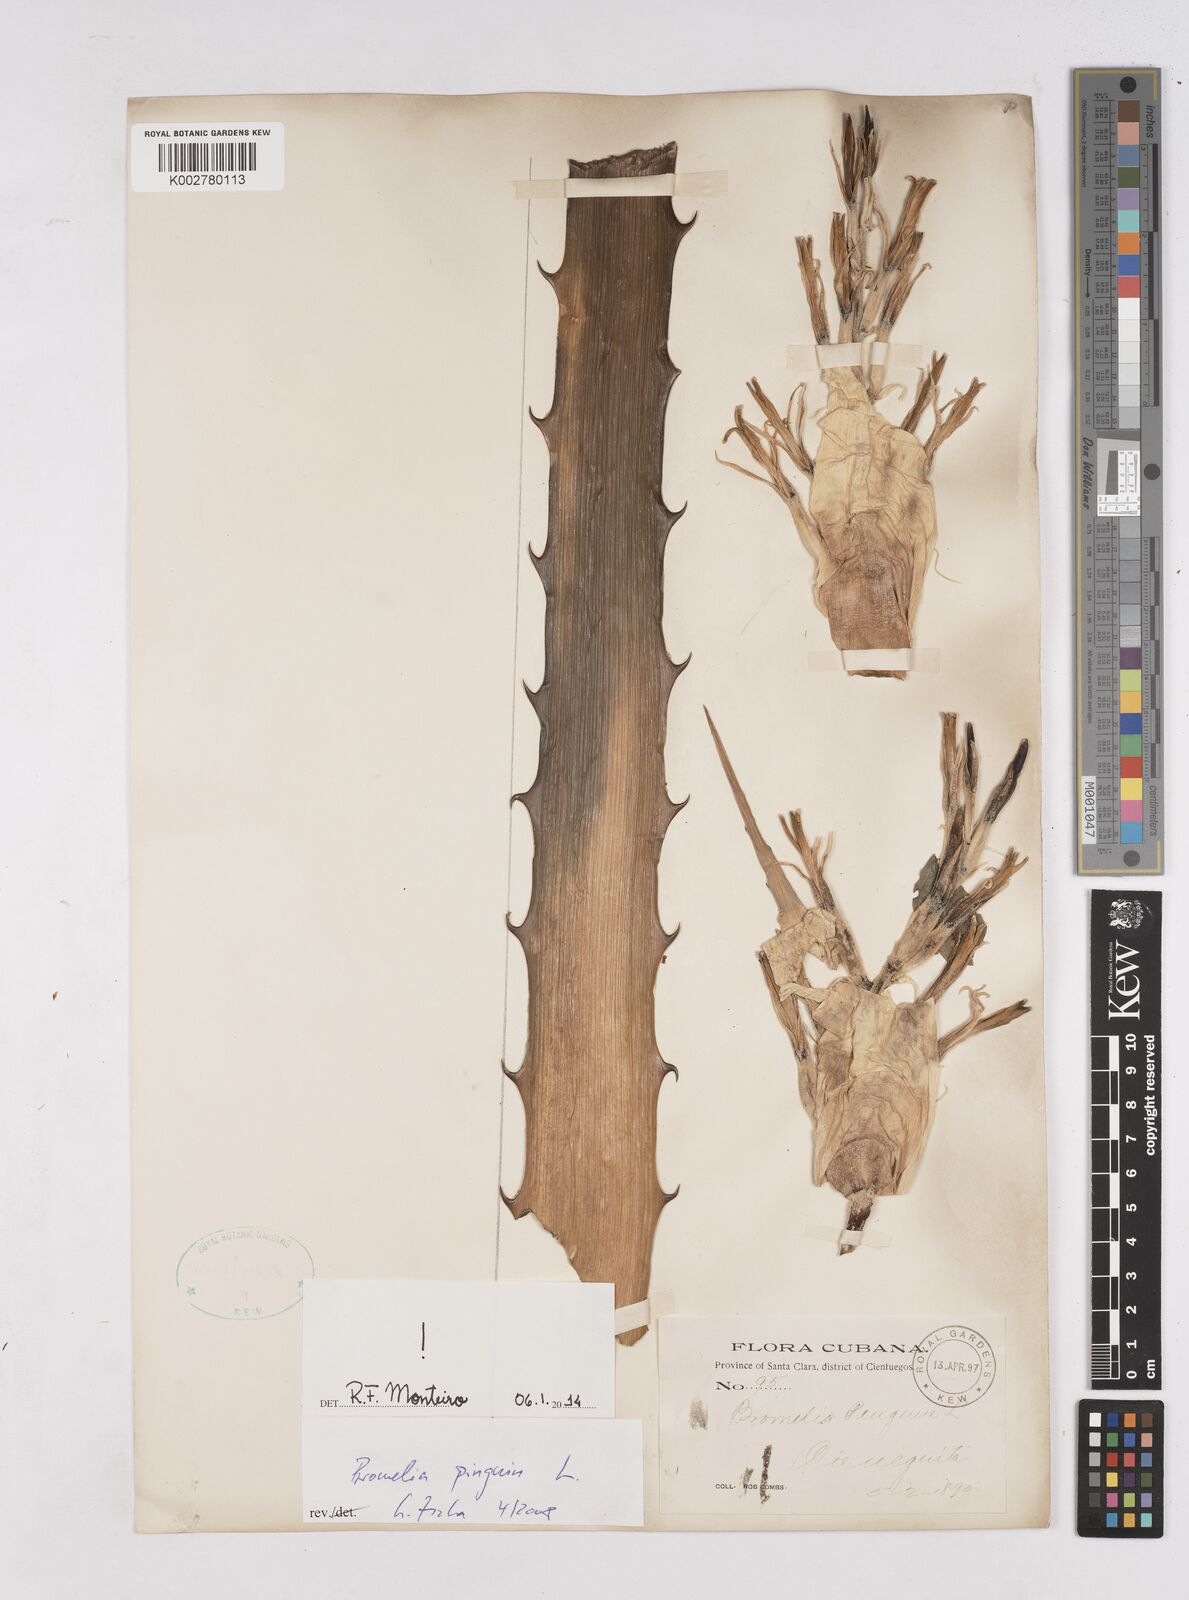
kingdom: Plantae
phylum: Tracheophyta
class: Liliopsida
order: Poales
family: Bromeliaceae
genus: Bromelia
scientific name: Bromelia pinguin
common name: Pinguin
